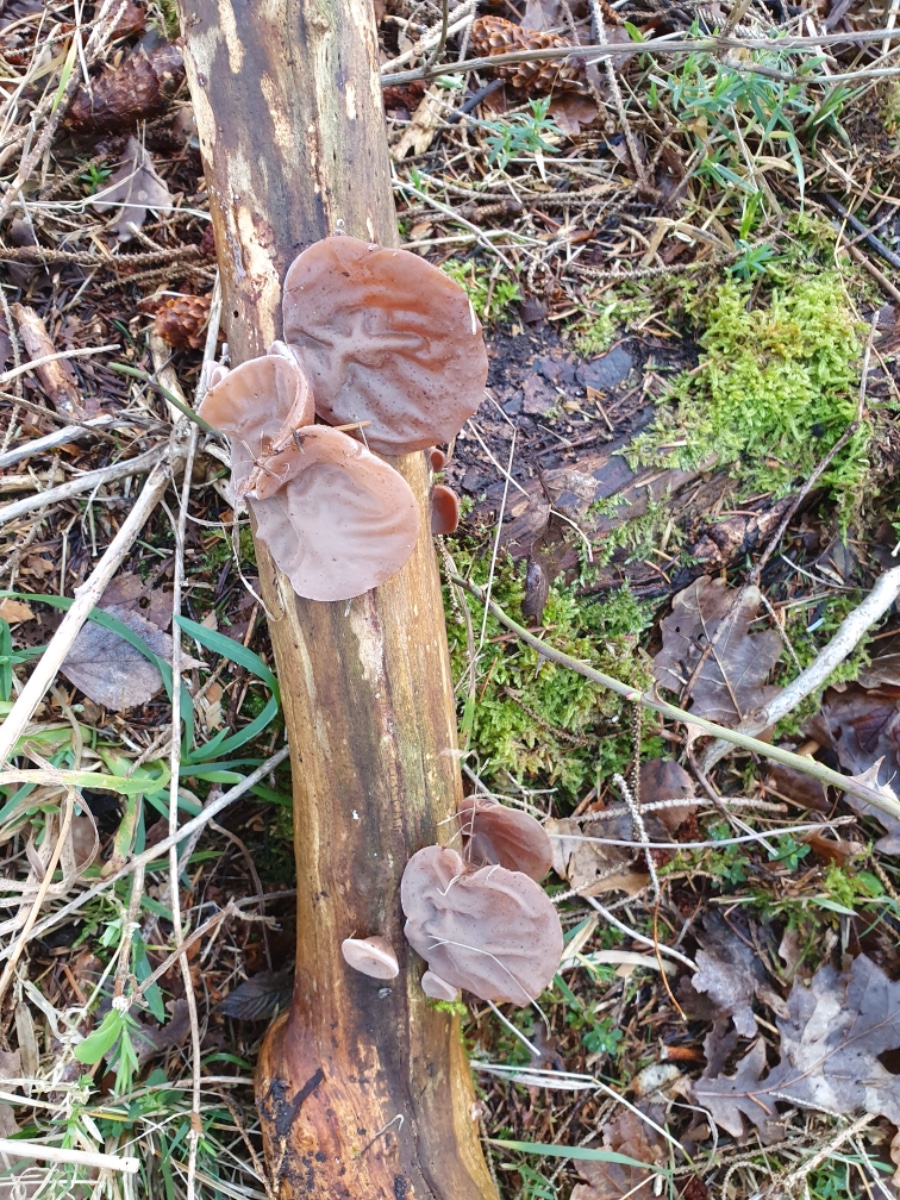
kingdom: Fungi
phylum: Basidiomycota
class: Agaricomycetes
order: Auriculariales
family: Auriculariaceae
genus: Auricularia
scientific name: Auricularia auricula-judae
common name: almindelig judasøre
